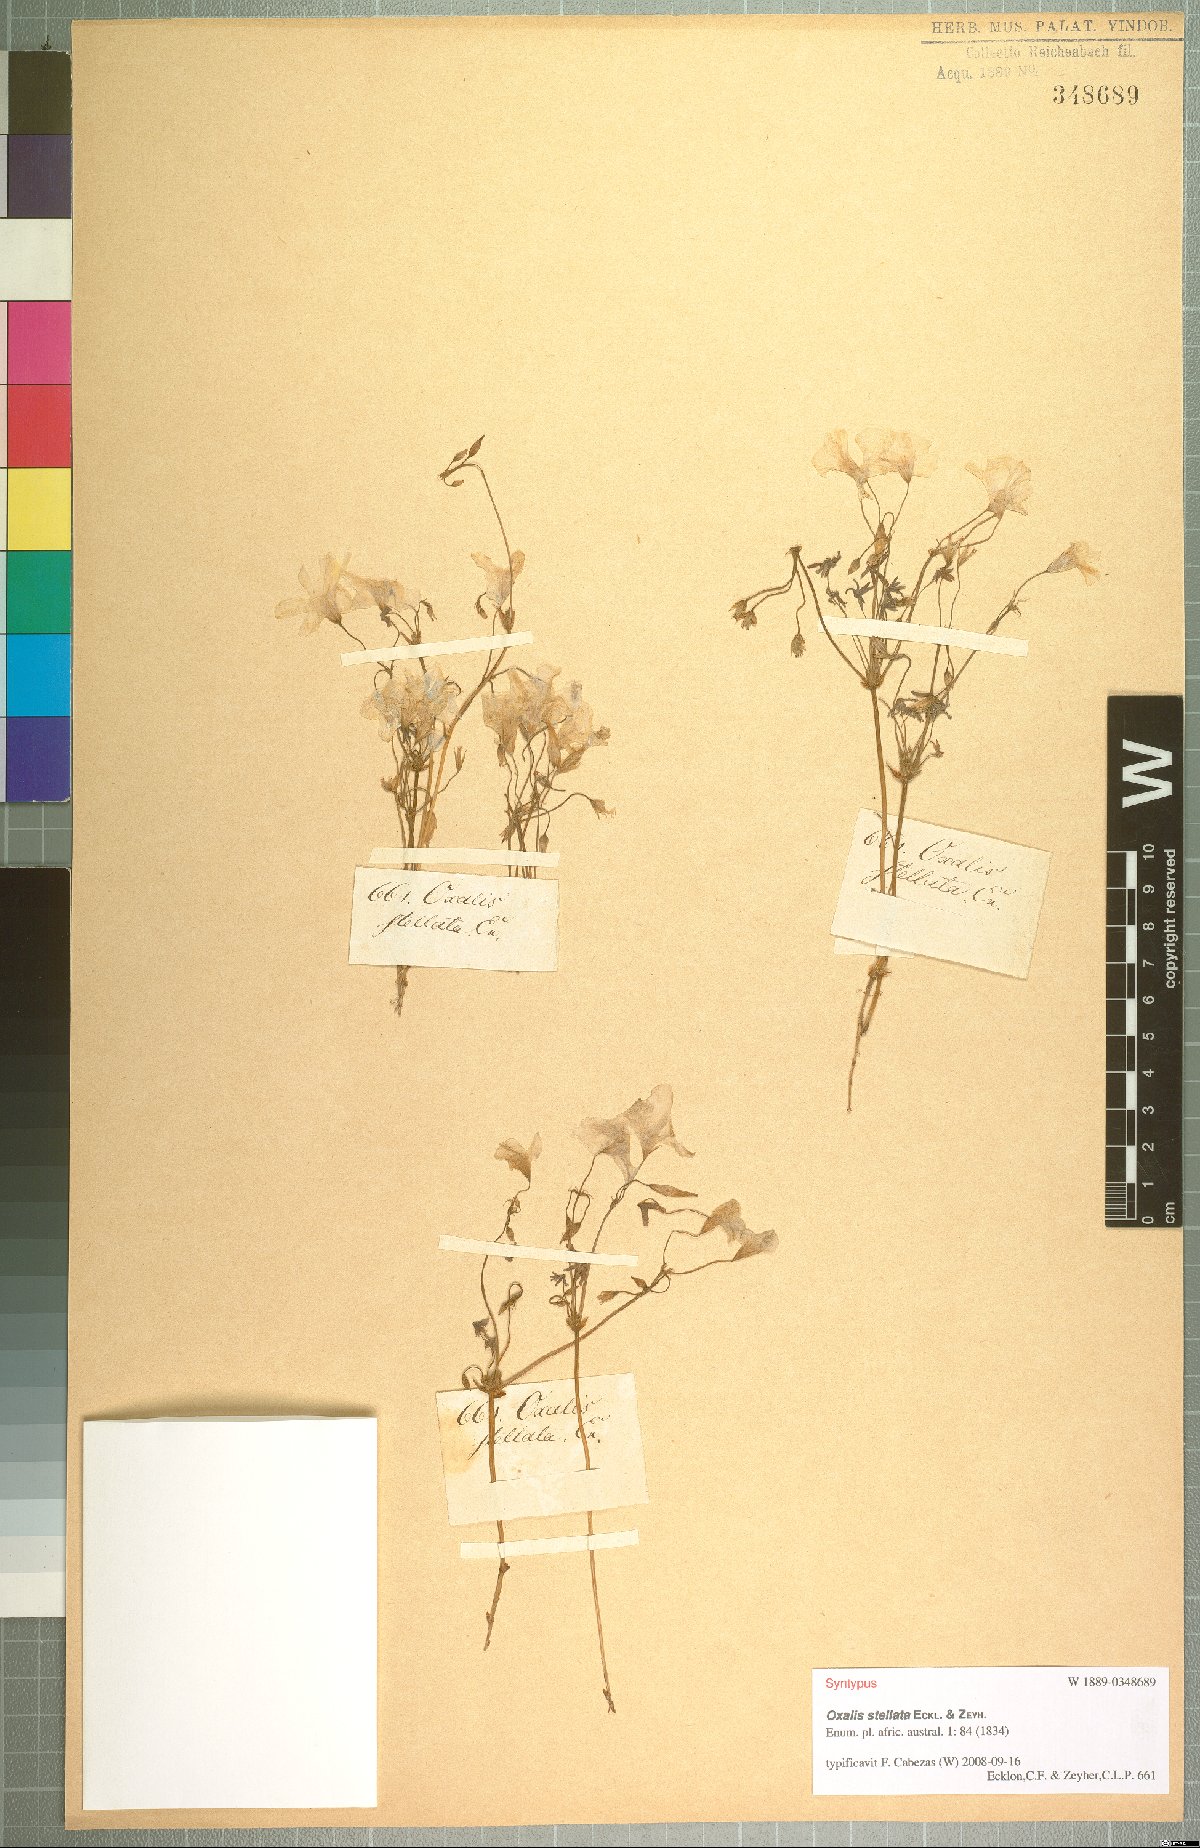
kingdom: Plantae
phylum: Tracheophyta
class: Magnoliopsida
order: Oxalidales
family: Oxalidaceae
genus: Oxalis
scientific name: Oxalis stellata
